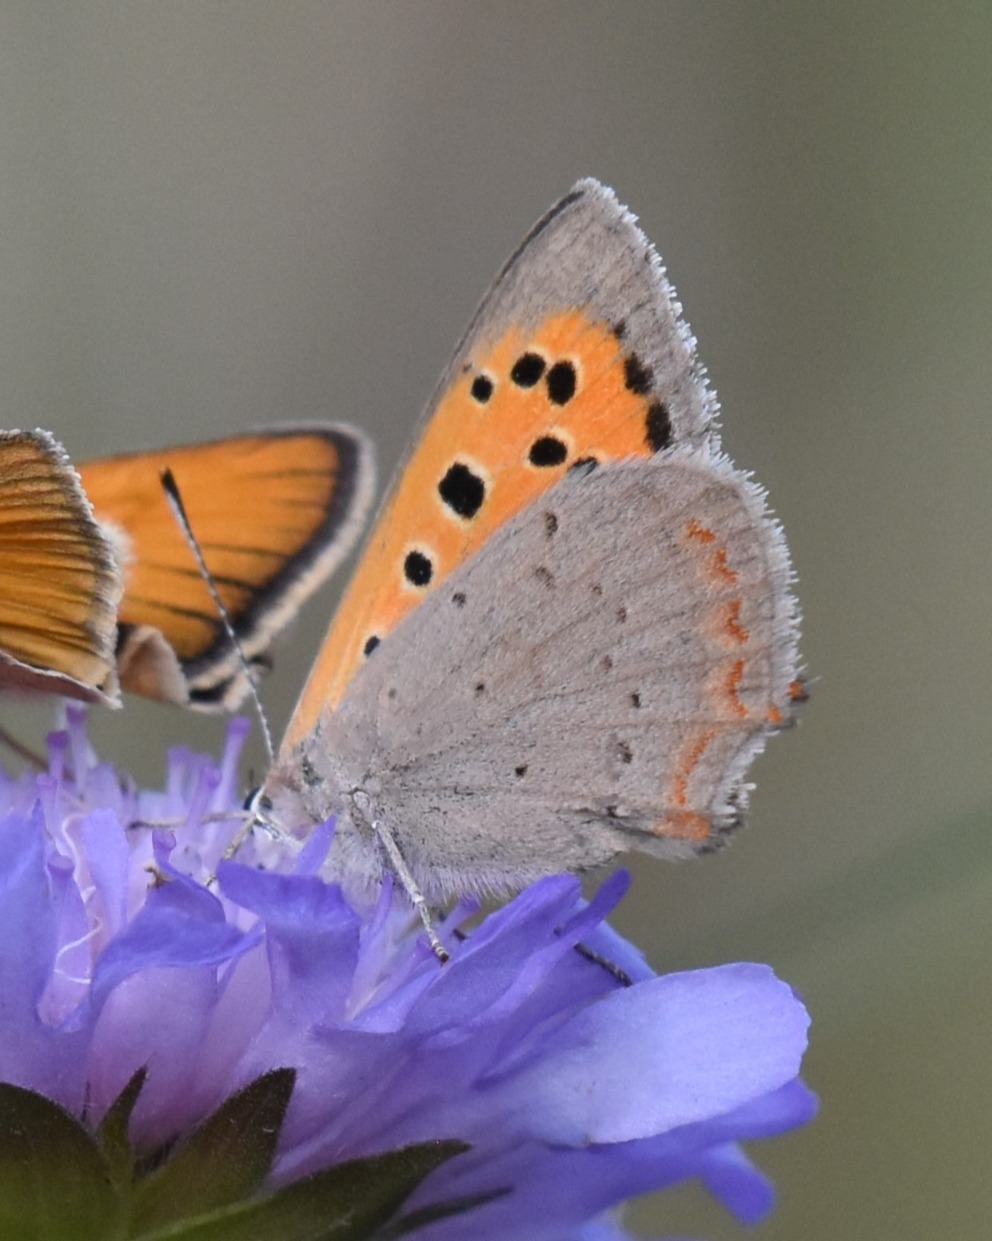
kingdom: Animalia
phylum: Arthropoda
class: Insecta
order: Lepidoptera
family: Lycaenidae
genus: Lycaena
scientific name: Lycaena phlaeas
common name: Lille ildfugl
